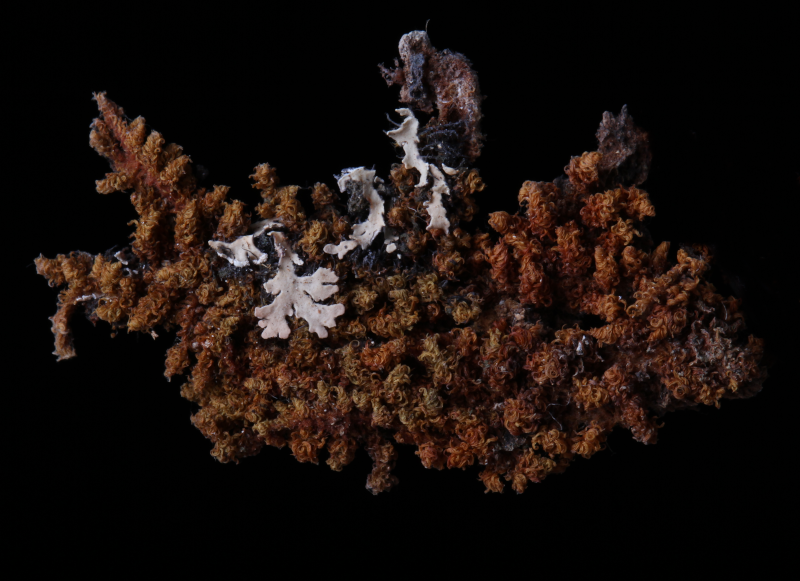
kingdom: Plantae
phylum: Bryophyta
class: Bryopsida
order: Orthotrichales
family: Orthotrichaceae
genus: Groutiella
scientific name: Groutiella tomentosa
